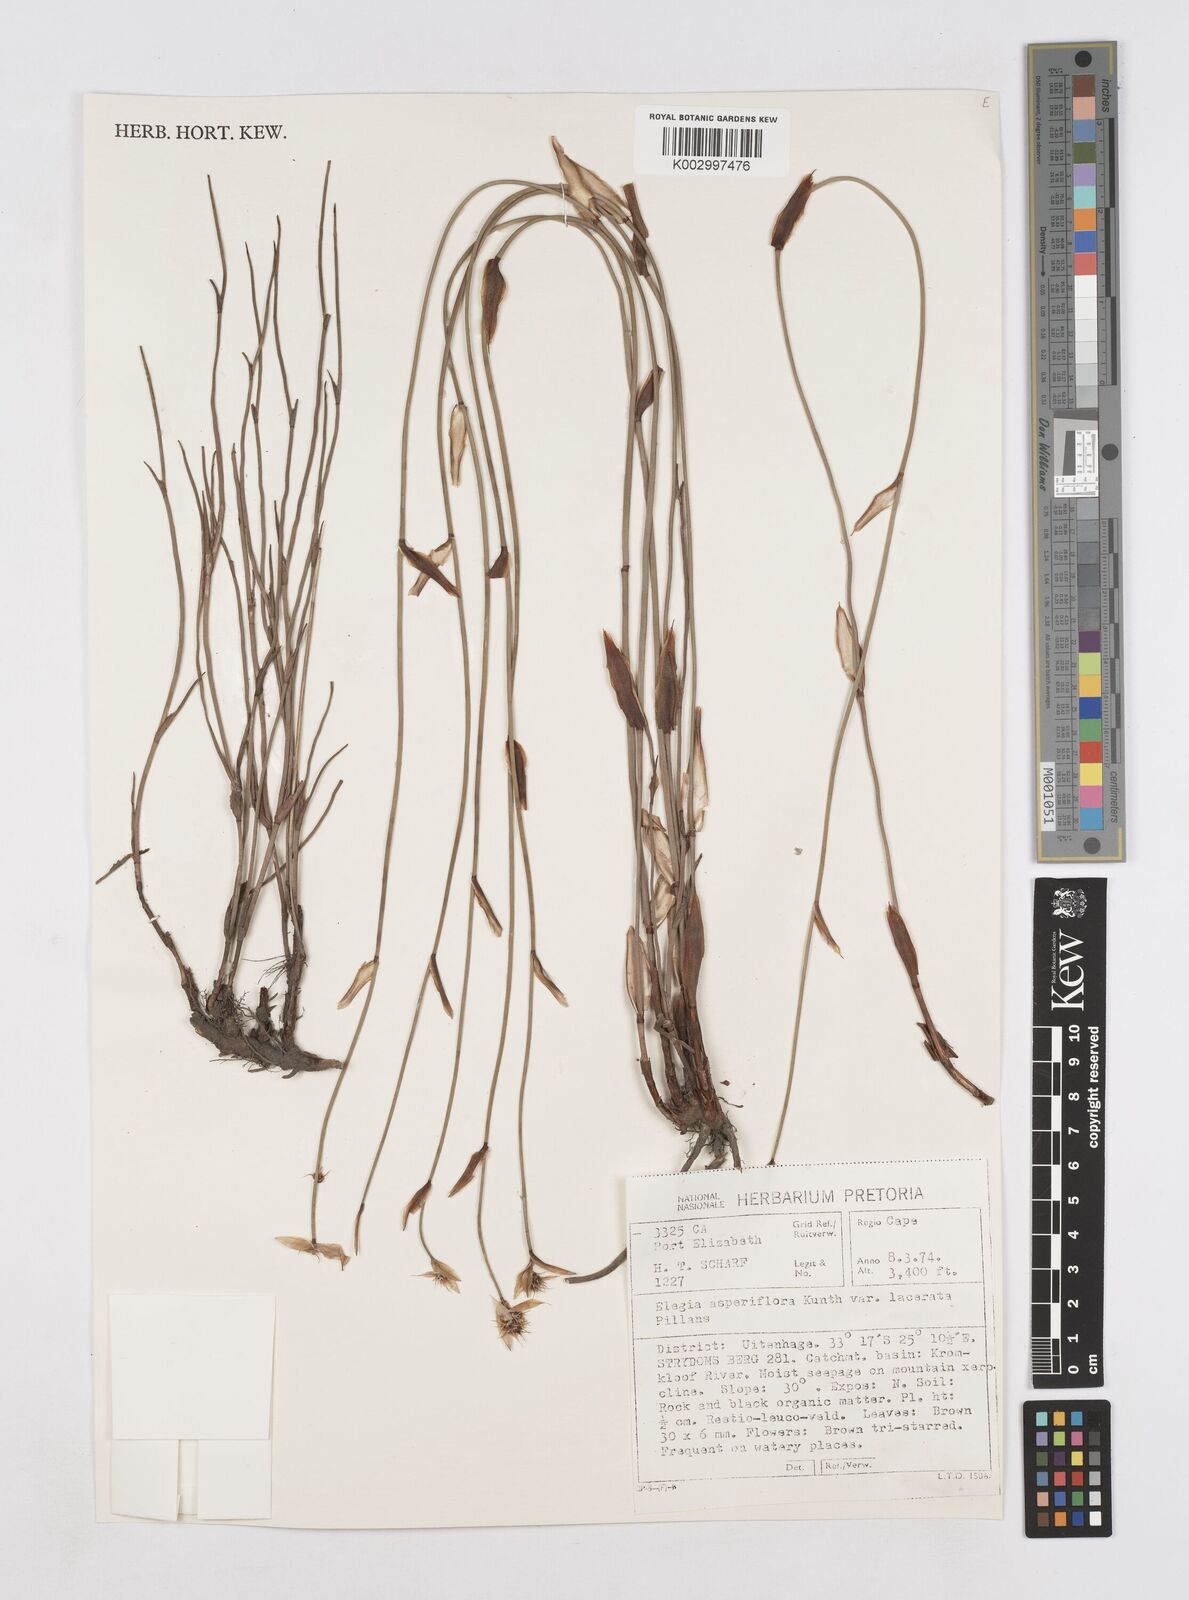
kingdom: Plantae
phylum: Tracheophyta
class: Liliopsida
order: Poales
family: Restionaceae
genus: Elegia
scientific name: Elegia asperiflora
